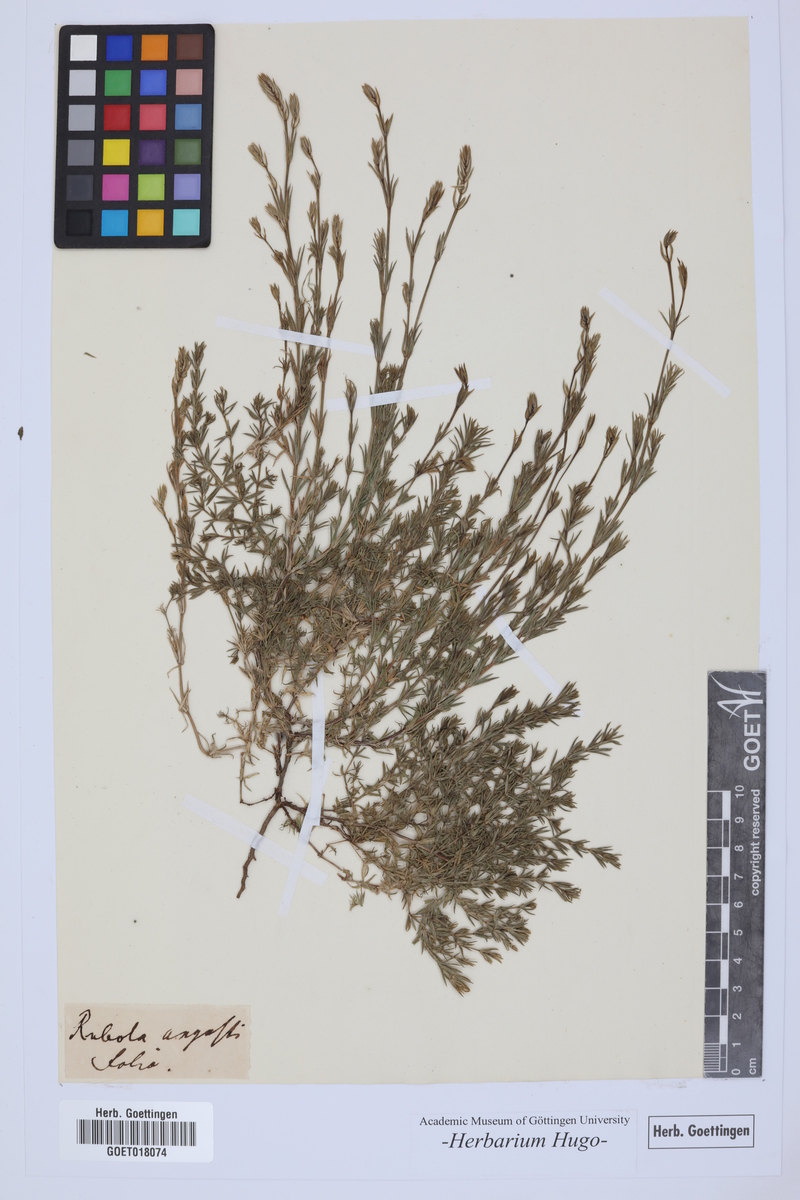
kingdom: Plantae
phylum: Tracheophyta
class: Magnoliopsida
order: Gentianales
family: Rubiaceae
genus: Crucianella
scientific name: Crucianella angustifolia
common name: Narrowleaf crucianella
